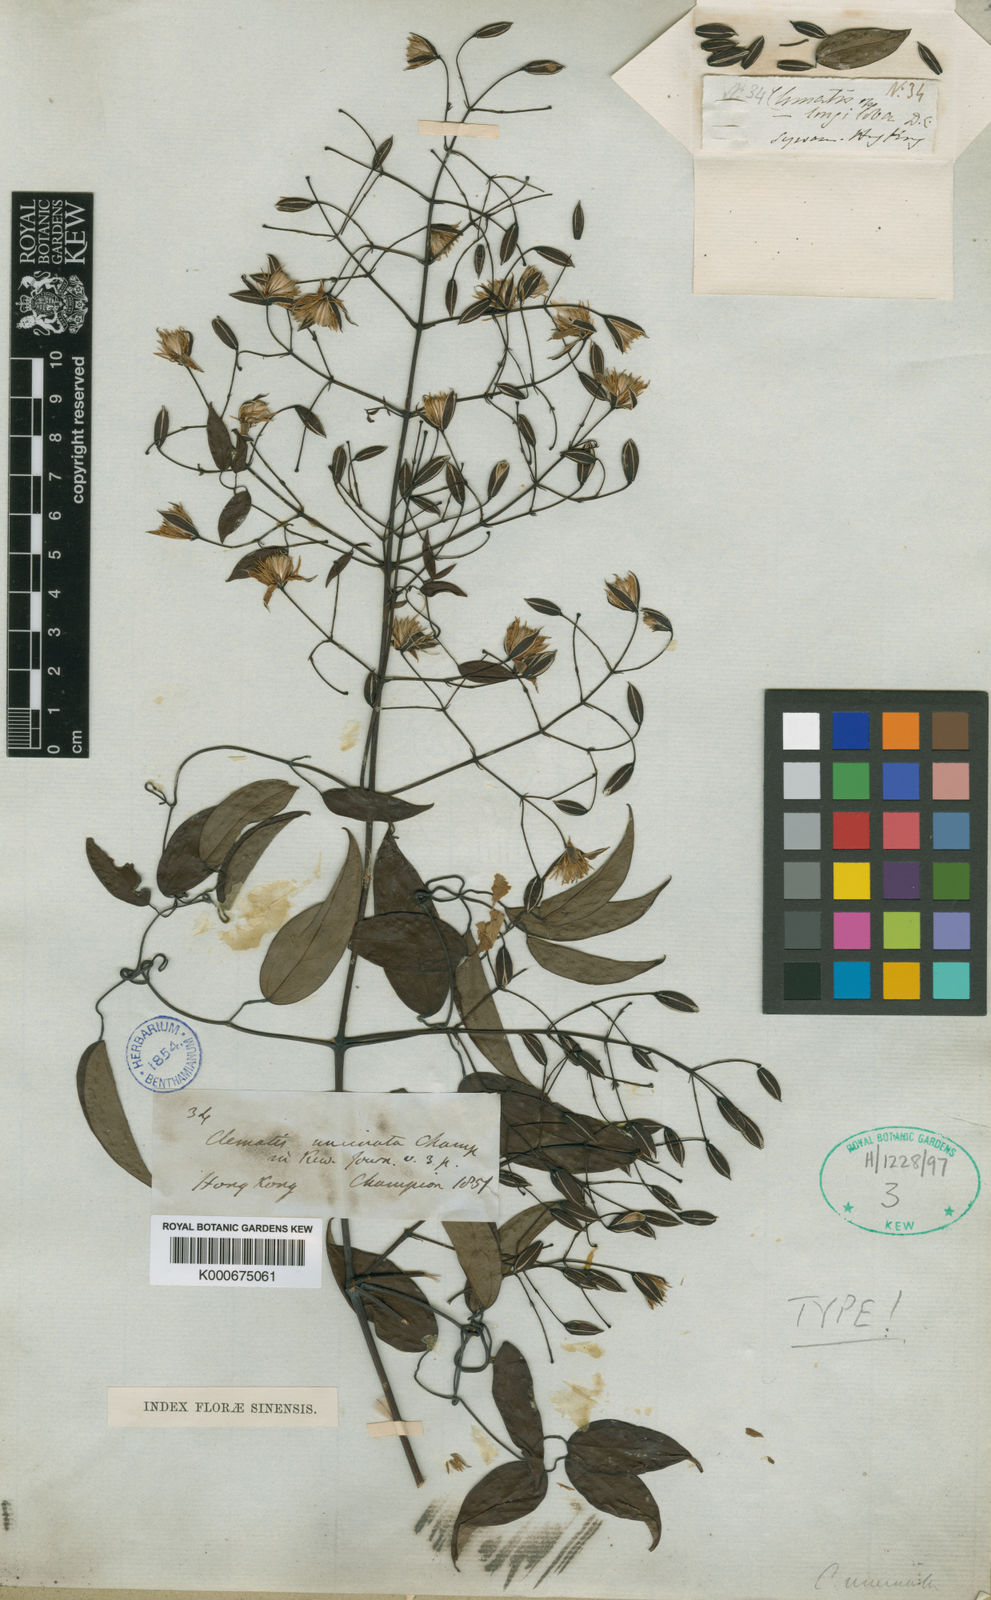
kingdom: Plantae
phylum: Tracheophyta
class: Magnoliopsida
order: Ranunculales
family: Ranunculaceae
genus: Clematis
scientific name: Clematis uncinata
